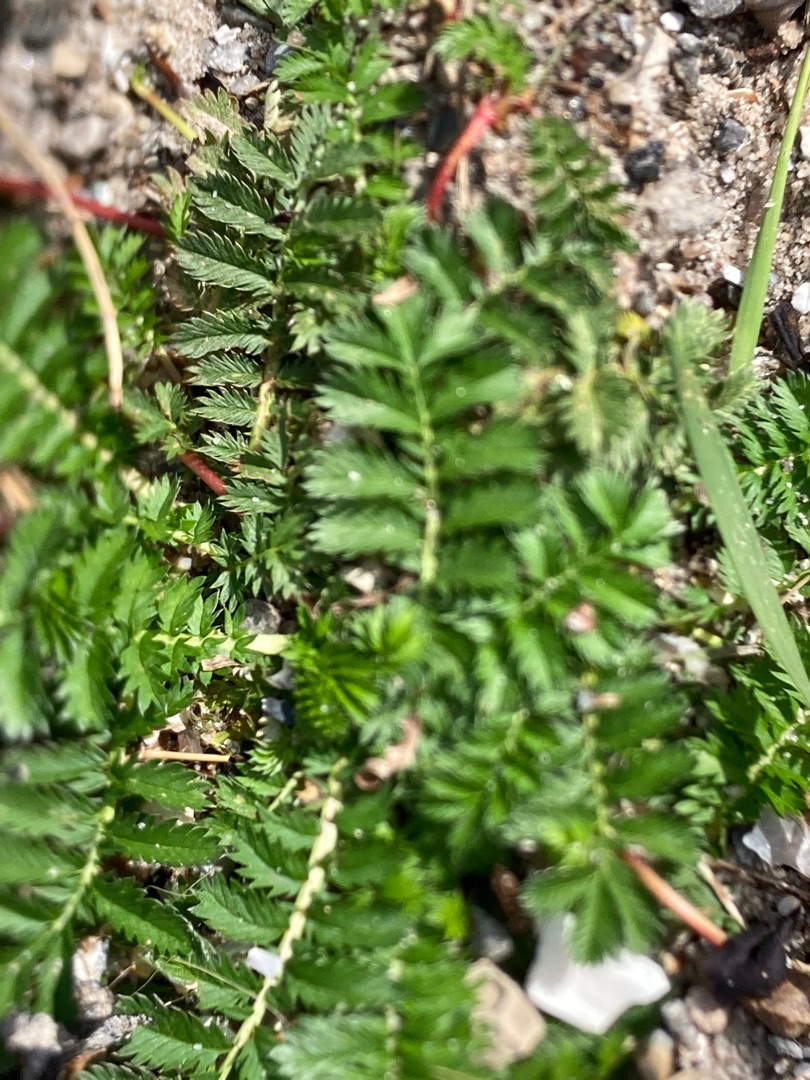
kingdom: Plantae
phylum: Tracheophyta
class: Magnoliopsida
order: Rosales
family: Rosaceae
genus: Argentina
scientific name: Argentina anserina
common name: Gåsepotentil
